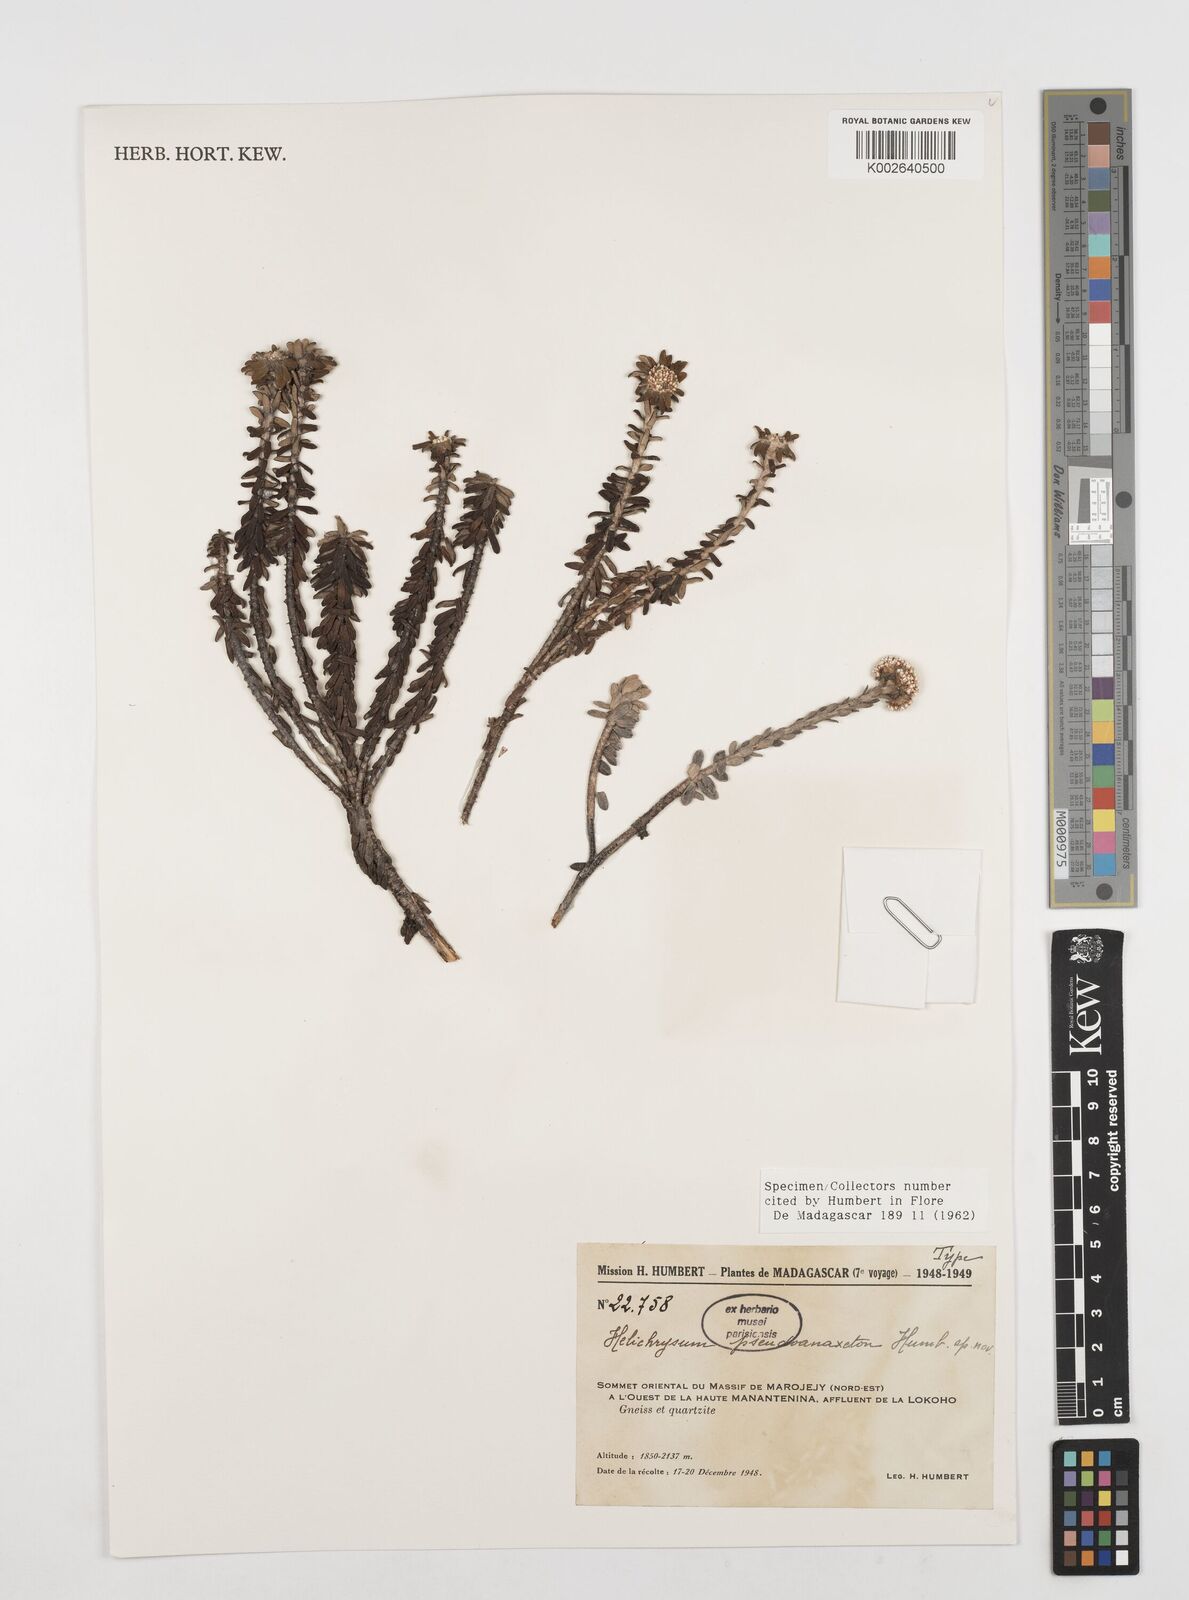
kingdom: Plantae
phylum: Tracheophyta
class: Magnoliopsida
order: Asterales
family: Asteraceae
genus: Helichrysum
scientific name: Helichrysum pseudoanaxeton
